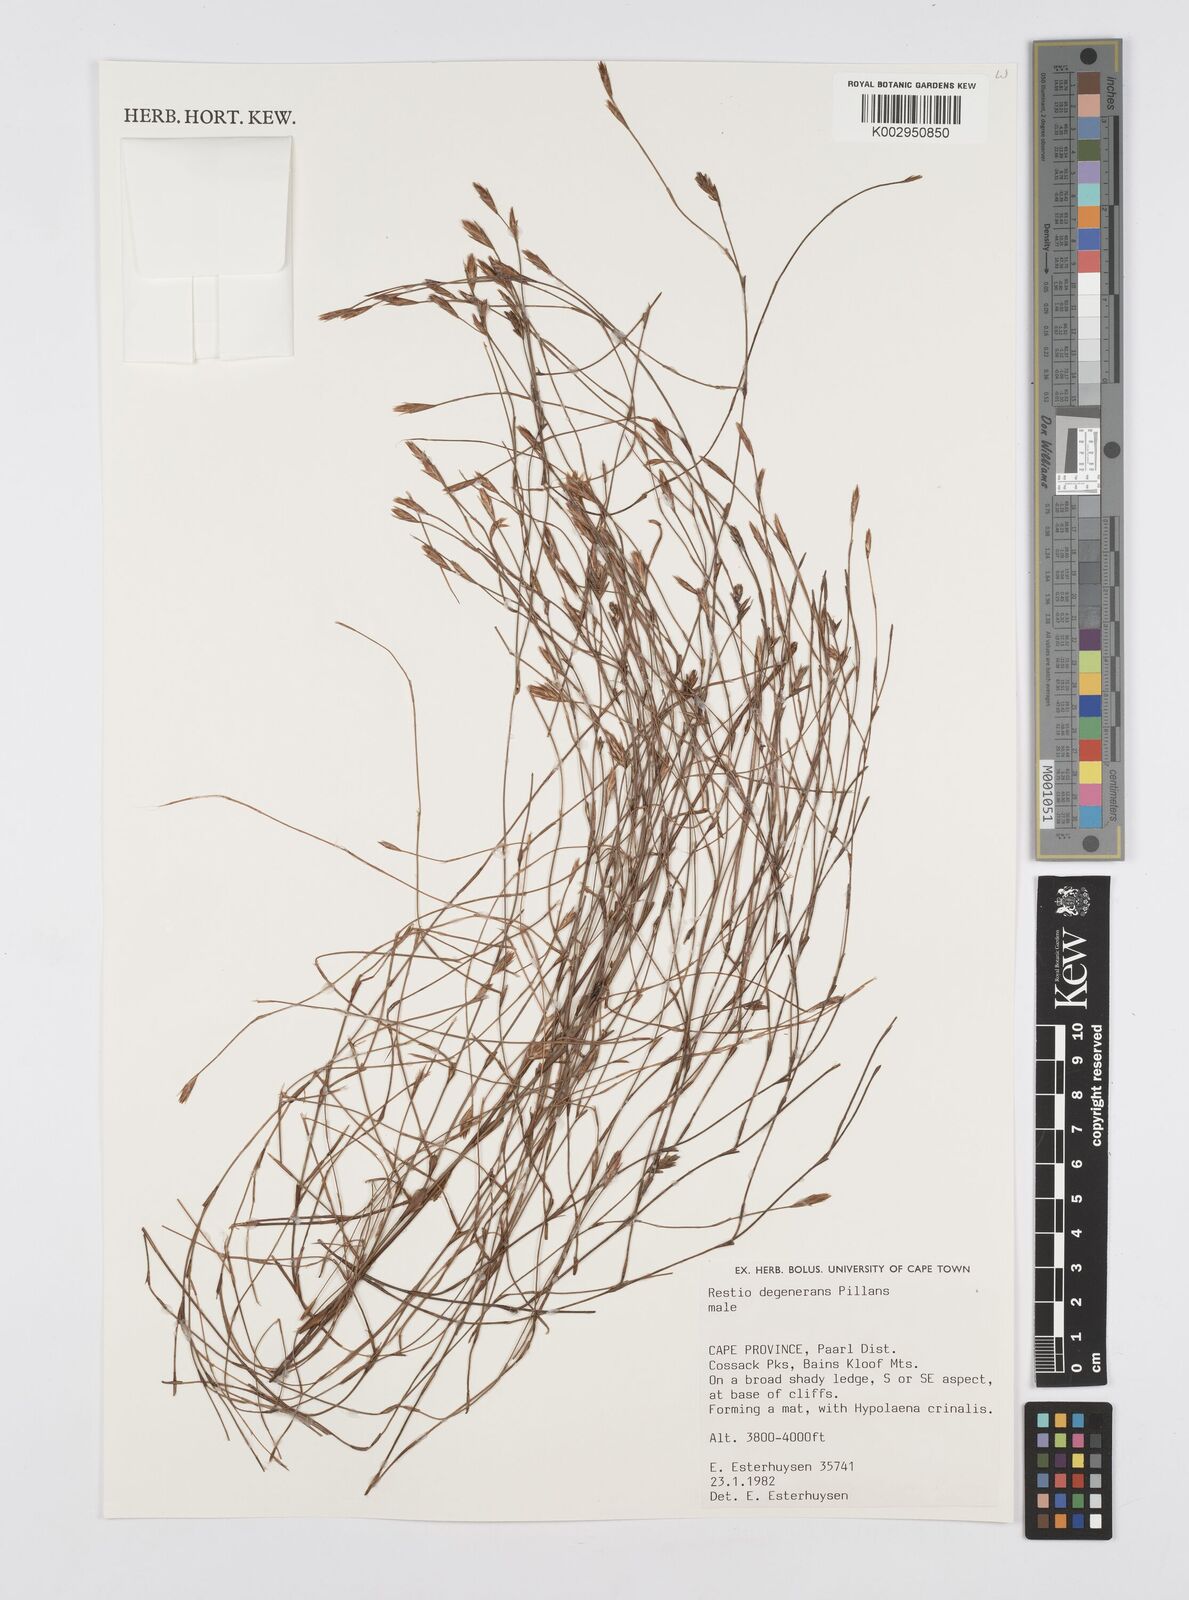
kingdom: Plantae
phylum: Tracheophyta
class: Liliopsida
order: Poales
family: Restionaceae
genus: Restio
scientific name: Restio degenerans
